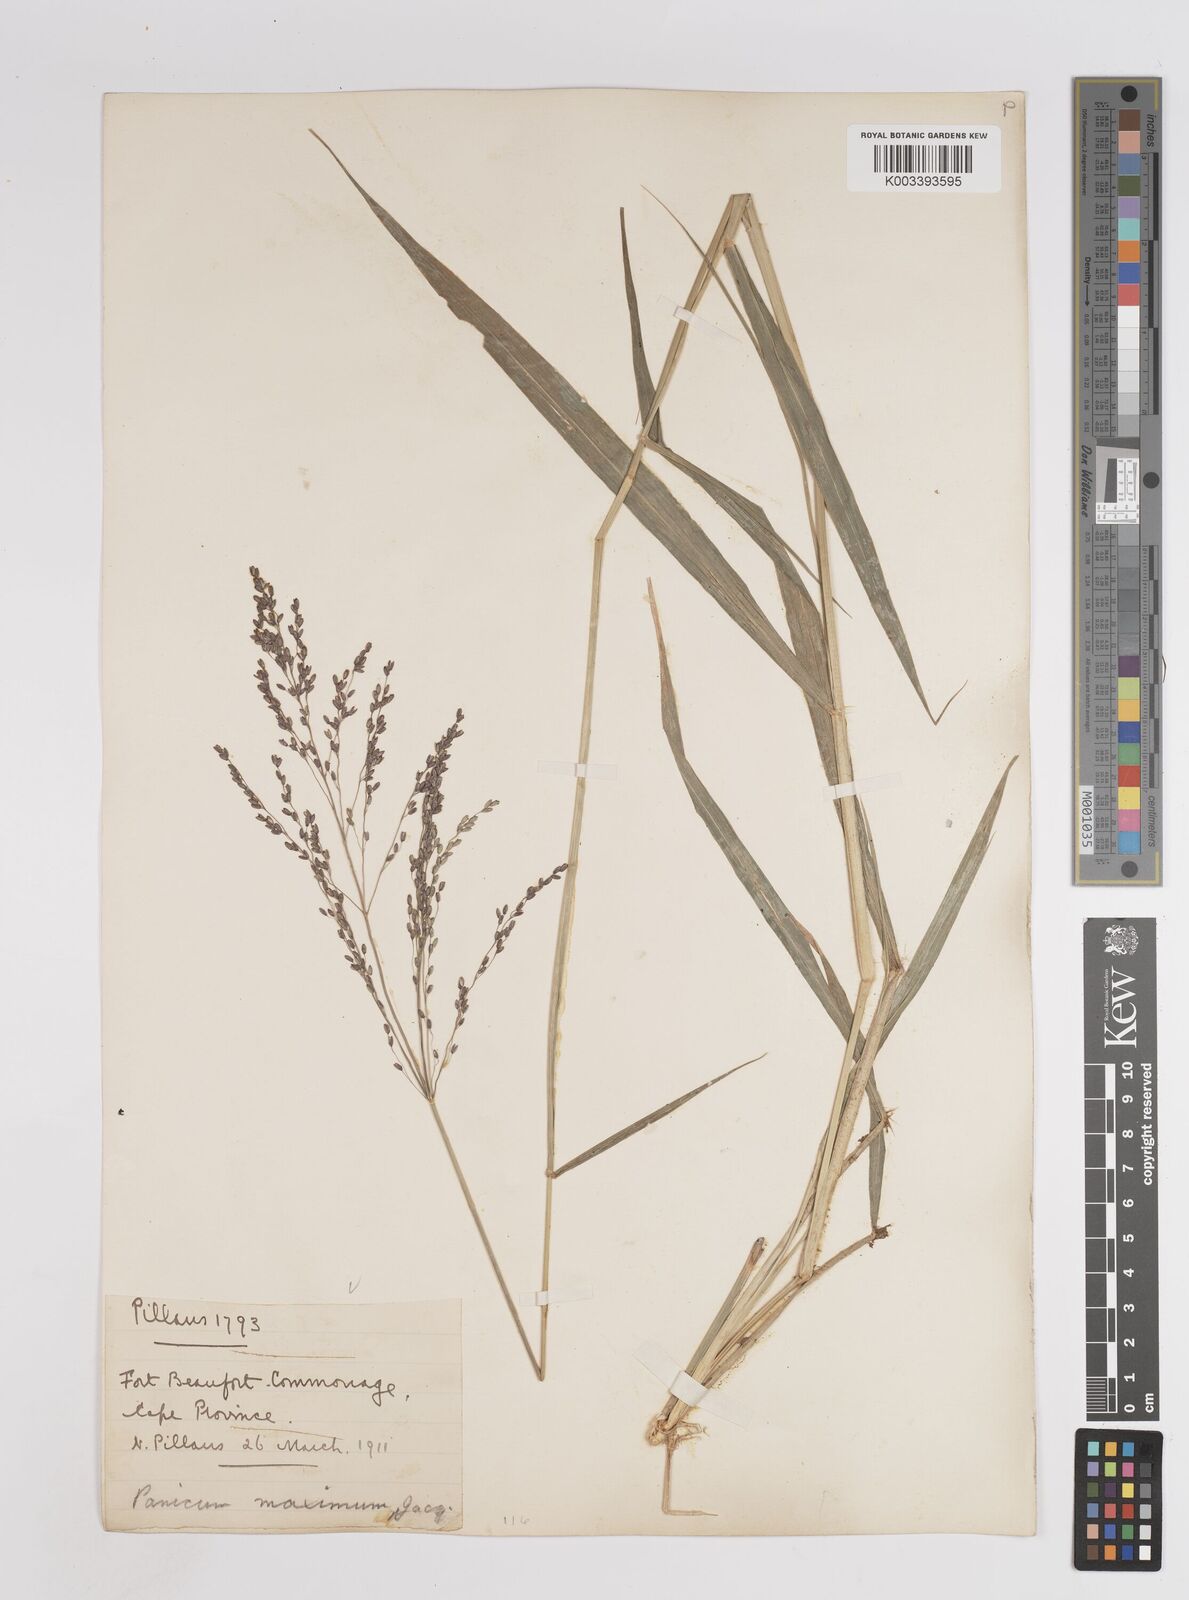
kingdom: Plantae
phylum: Tracheophyta
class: Liliopsida
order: Poales
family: Poaceae
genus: Megathyrsus
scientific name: Megathyrsus maximus
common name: Guineagrass
